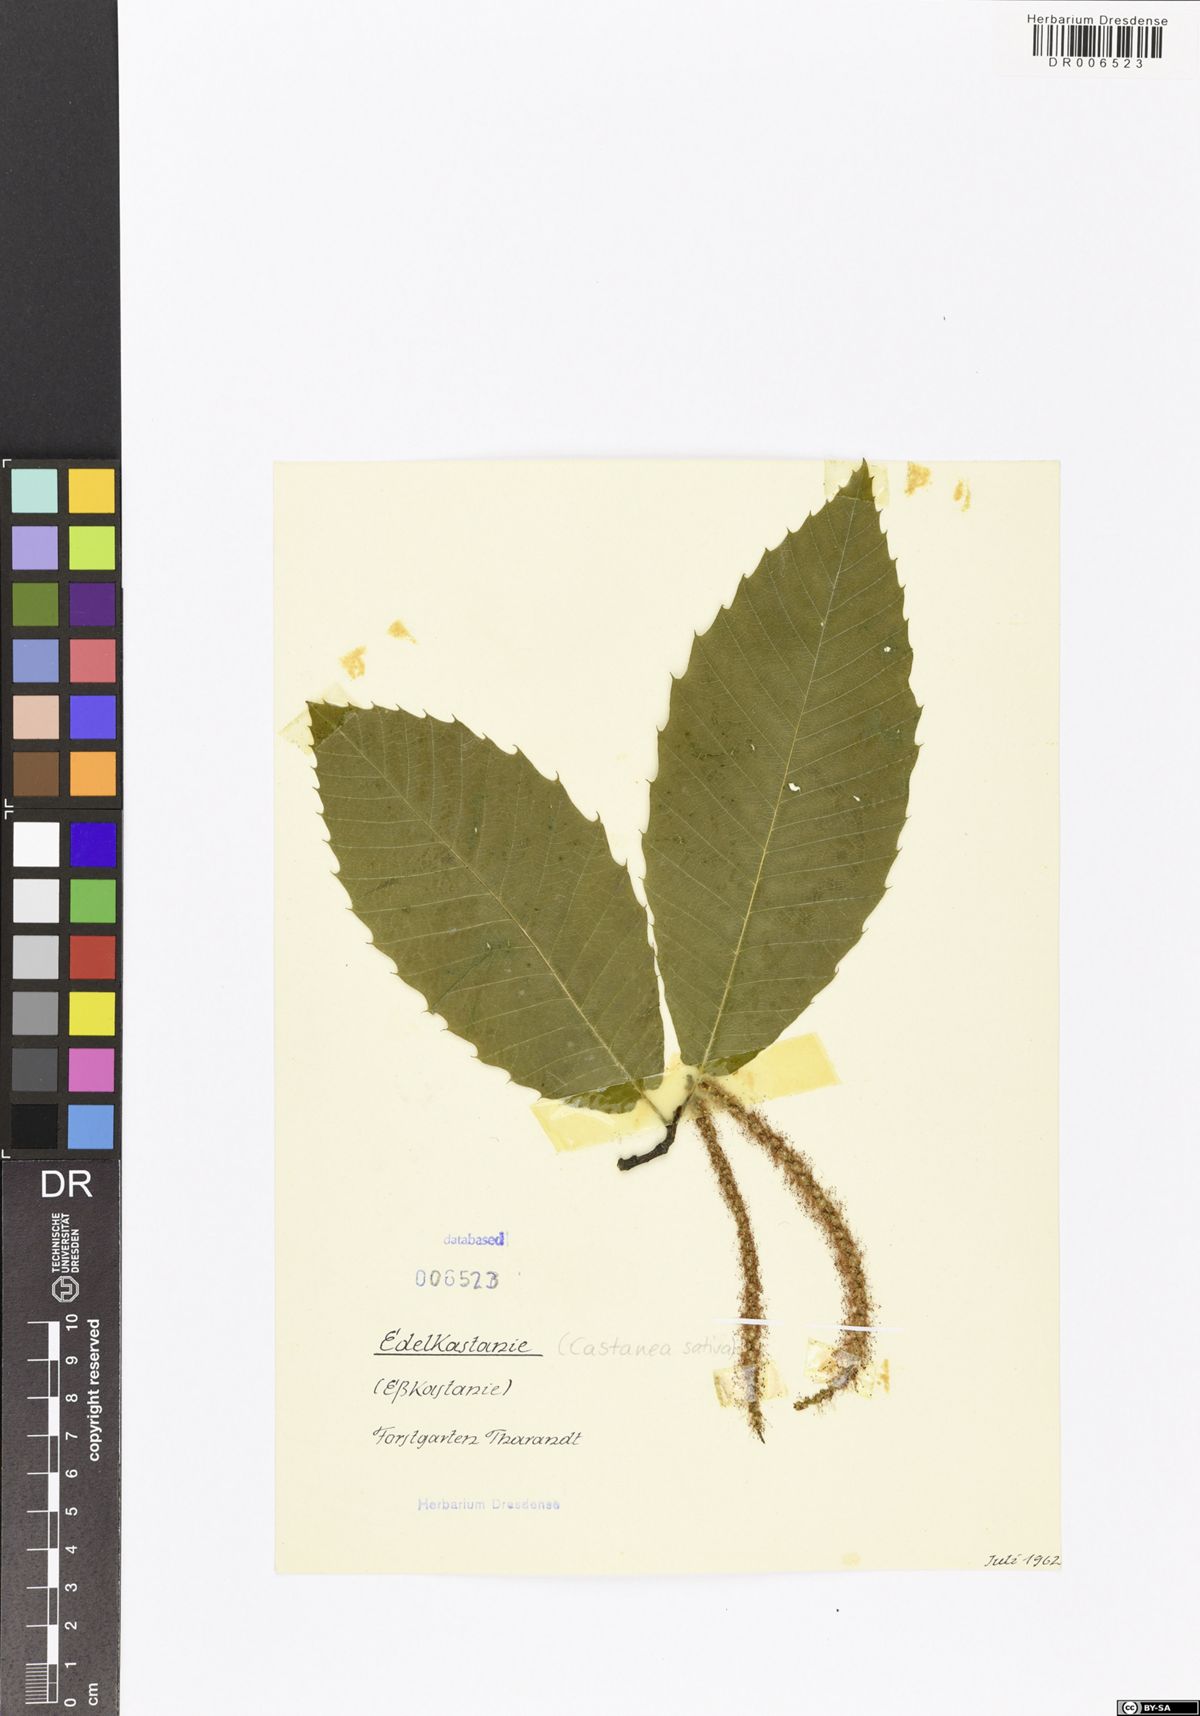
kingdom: Plantae
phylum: Tracheophyta
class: Magnoliopsida
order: Fagales
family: Fagaceae
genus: Castanea
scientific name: Castanea sativa
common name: Sweet chestnut
